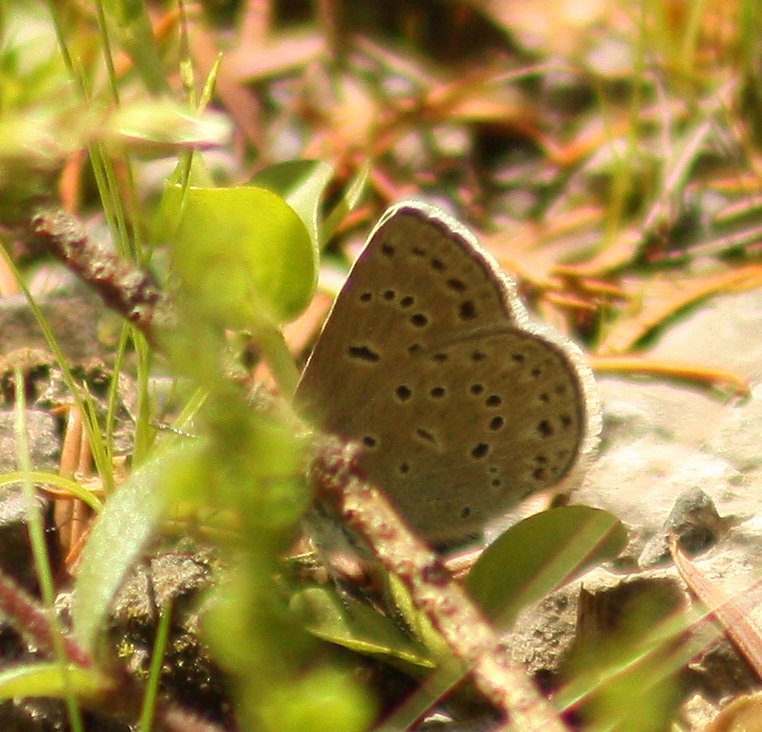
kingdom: Animalia
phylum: Arthropoda
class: Insecta
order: Lepidoptera
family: Lycaenidae
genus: Icaricia
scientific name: Icaricia icarioides
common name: Boisduval's Blue
